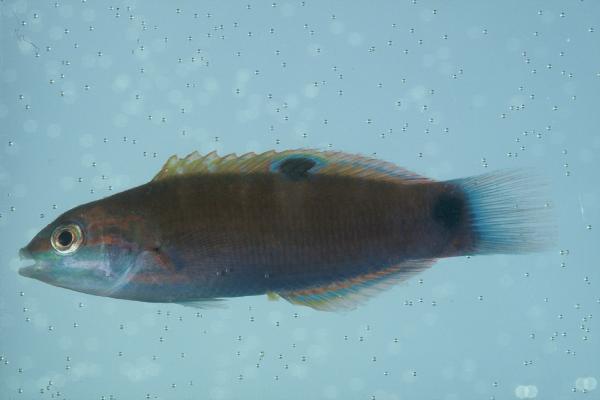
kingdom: Animalia
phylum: Chordata
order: Perciformes
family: Labridae
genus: Thalassoma
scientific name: Thalassoma lunare
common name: Blue wrasse
